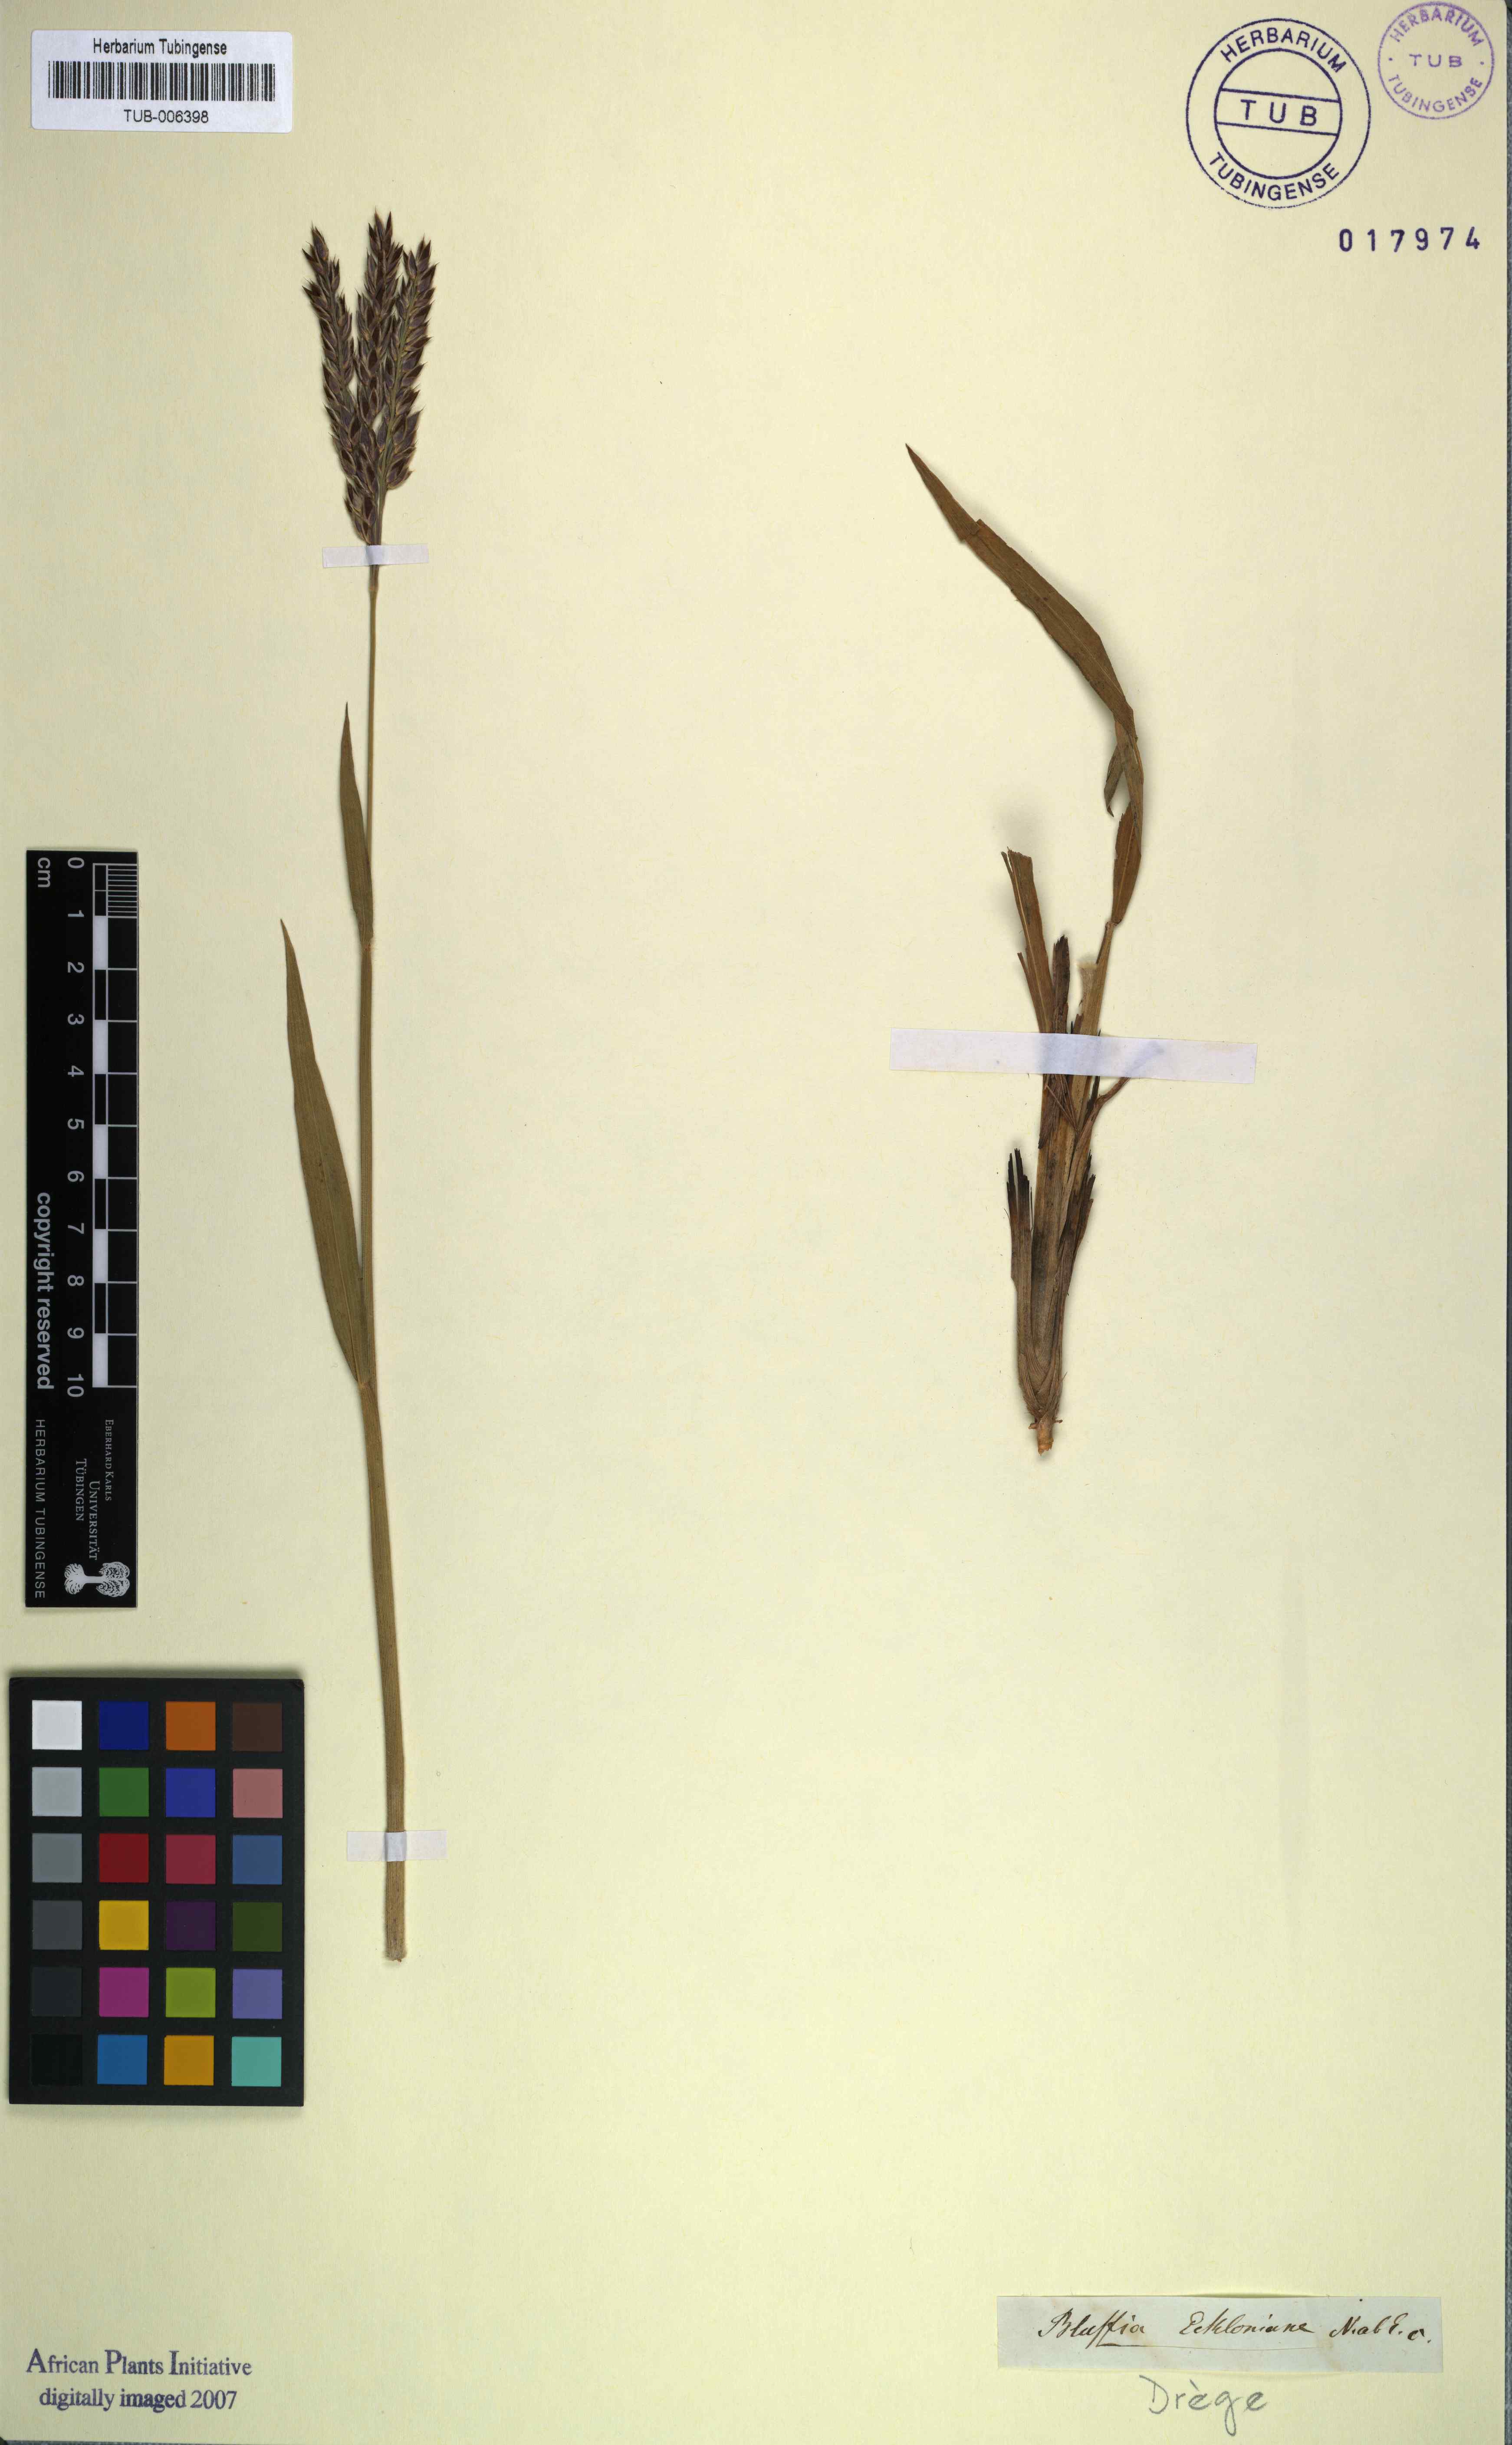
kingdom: Plantae
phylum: Tracheophyta
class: Liliopsida
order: Poales
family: Poaceae
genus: Alloteropsis
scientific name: Alloteropsis semialata
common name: Cockatoo grass
